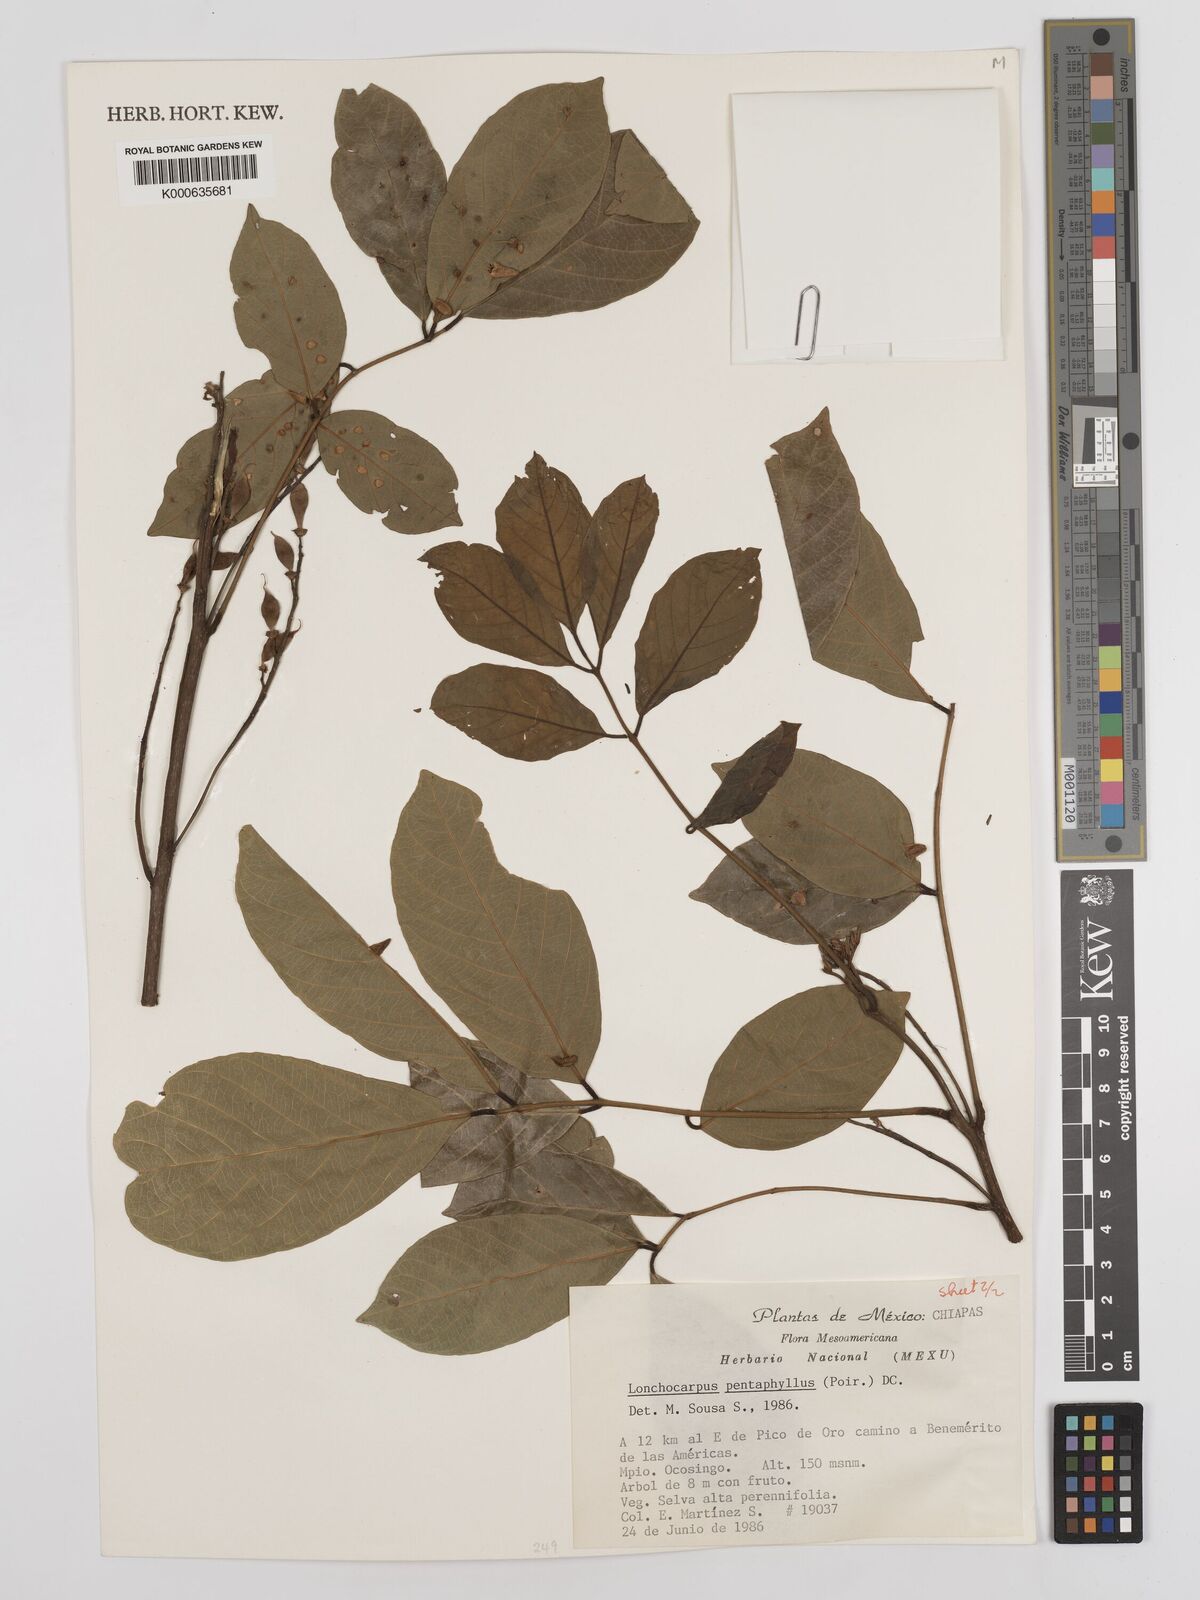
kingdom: Plantae
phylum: Tracheophyta
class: Magnoliopsida
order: Fabales
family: Fabaceae
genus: Lonchocarpus
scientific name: Lonchocarpus
